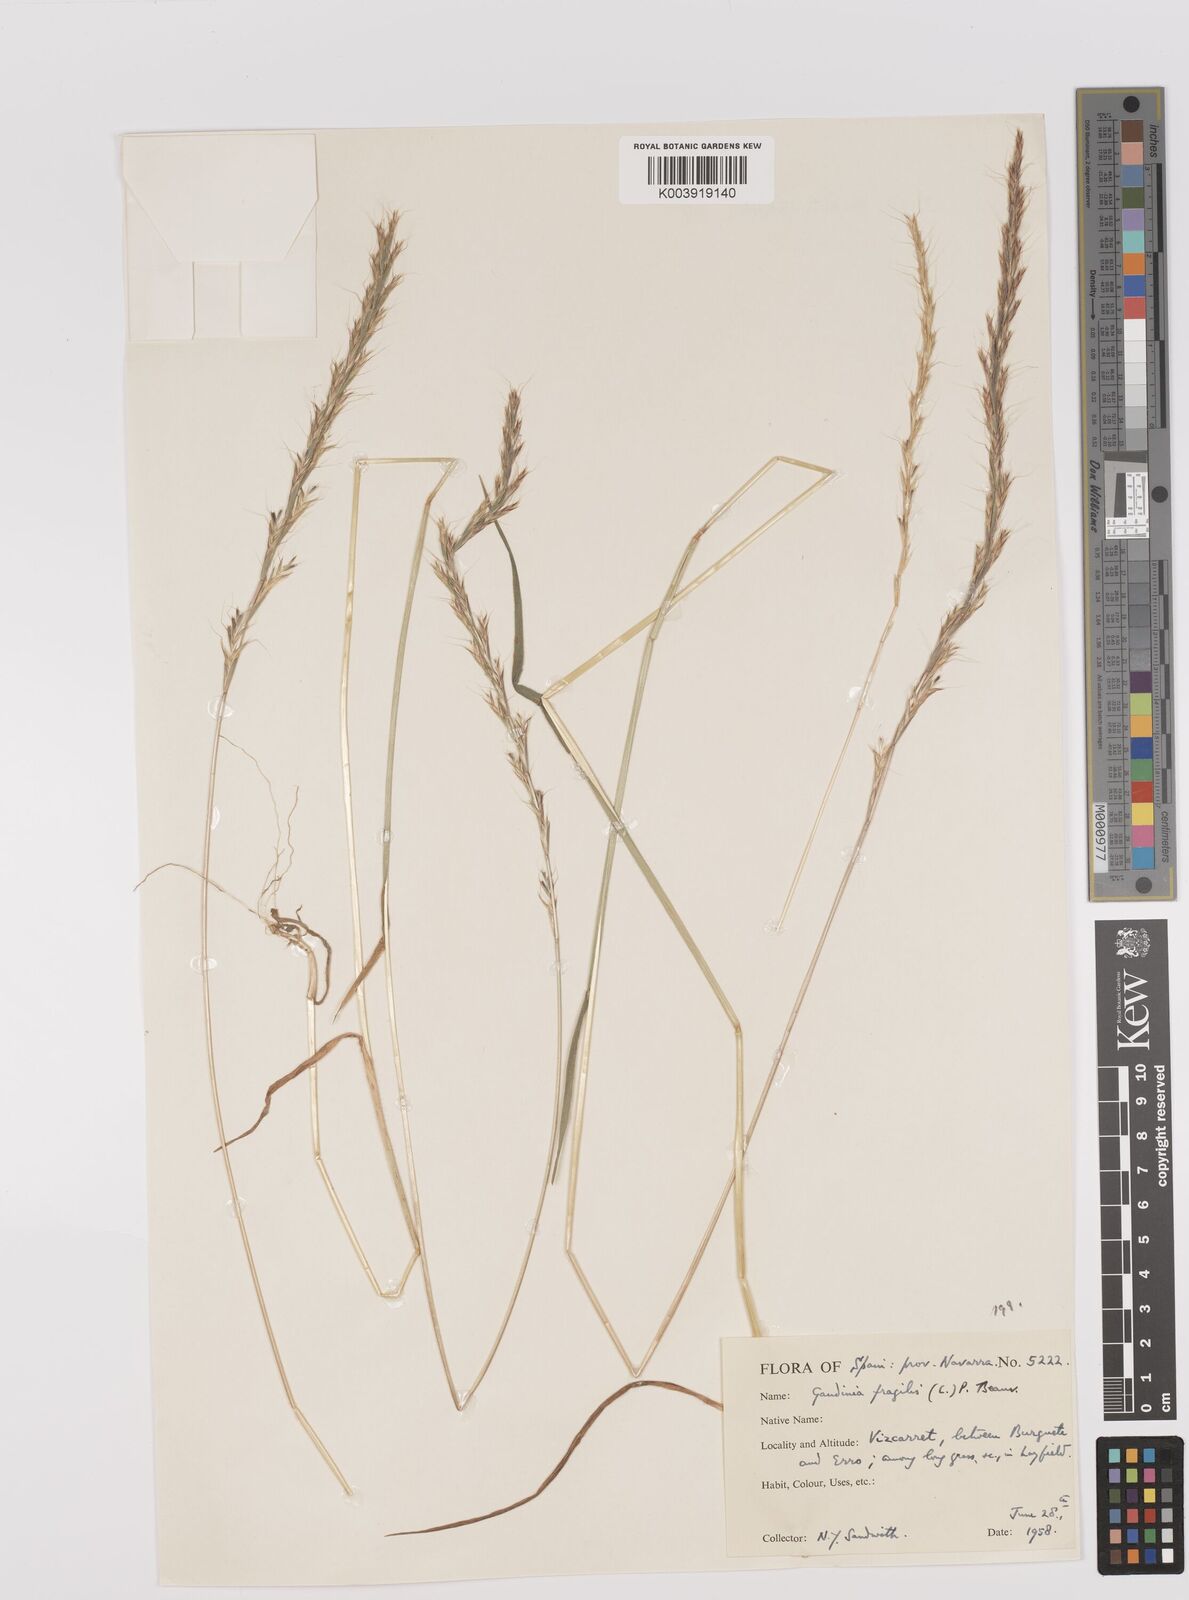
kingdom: Plantae
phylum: Tracheophyta
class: Liliopsida
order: Poales
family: Poaceae
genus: Gaudinia
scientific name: Gaudinia fragilis
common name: French oat-grass
